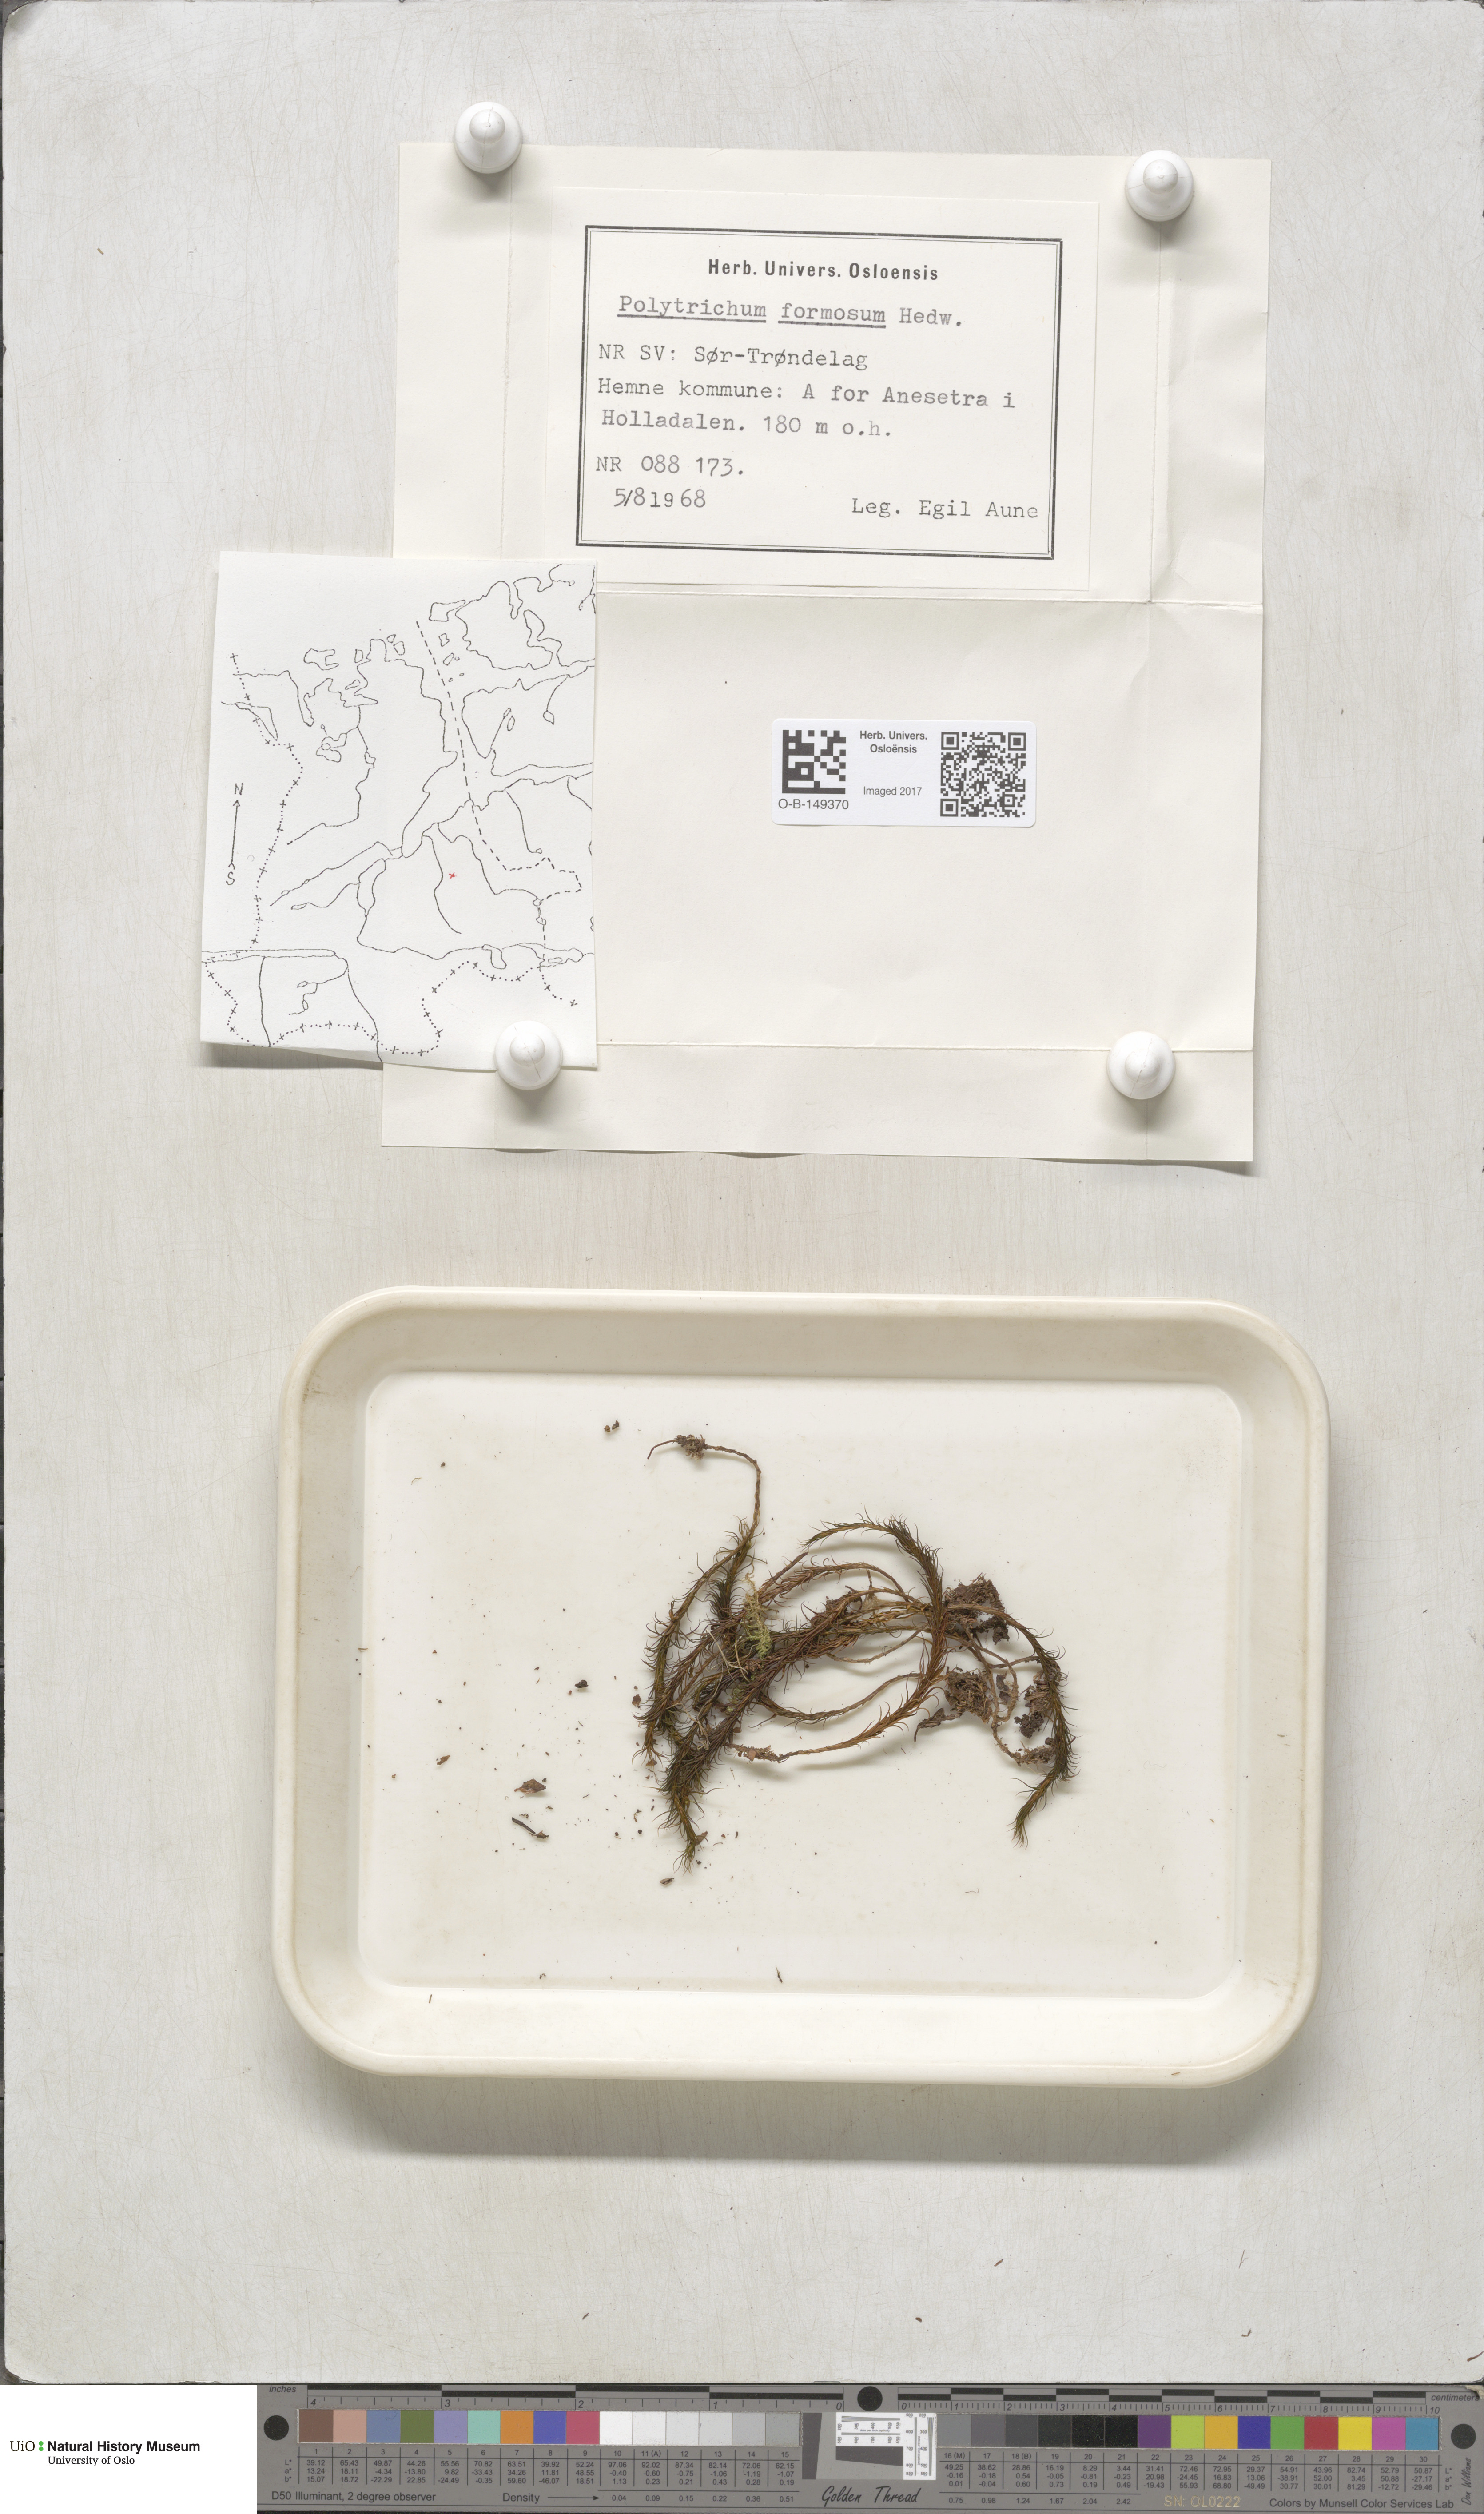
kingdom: Plantae
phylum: Bryophyta
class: Polytrichopsida
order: Polytrichales
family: Polytrichaceae
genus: Polytrichum
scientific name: Polytrichum formosum
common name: Bank haircap moss
